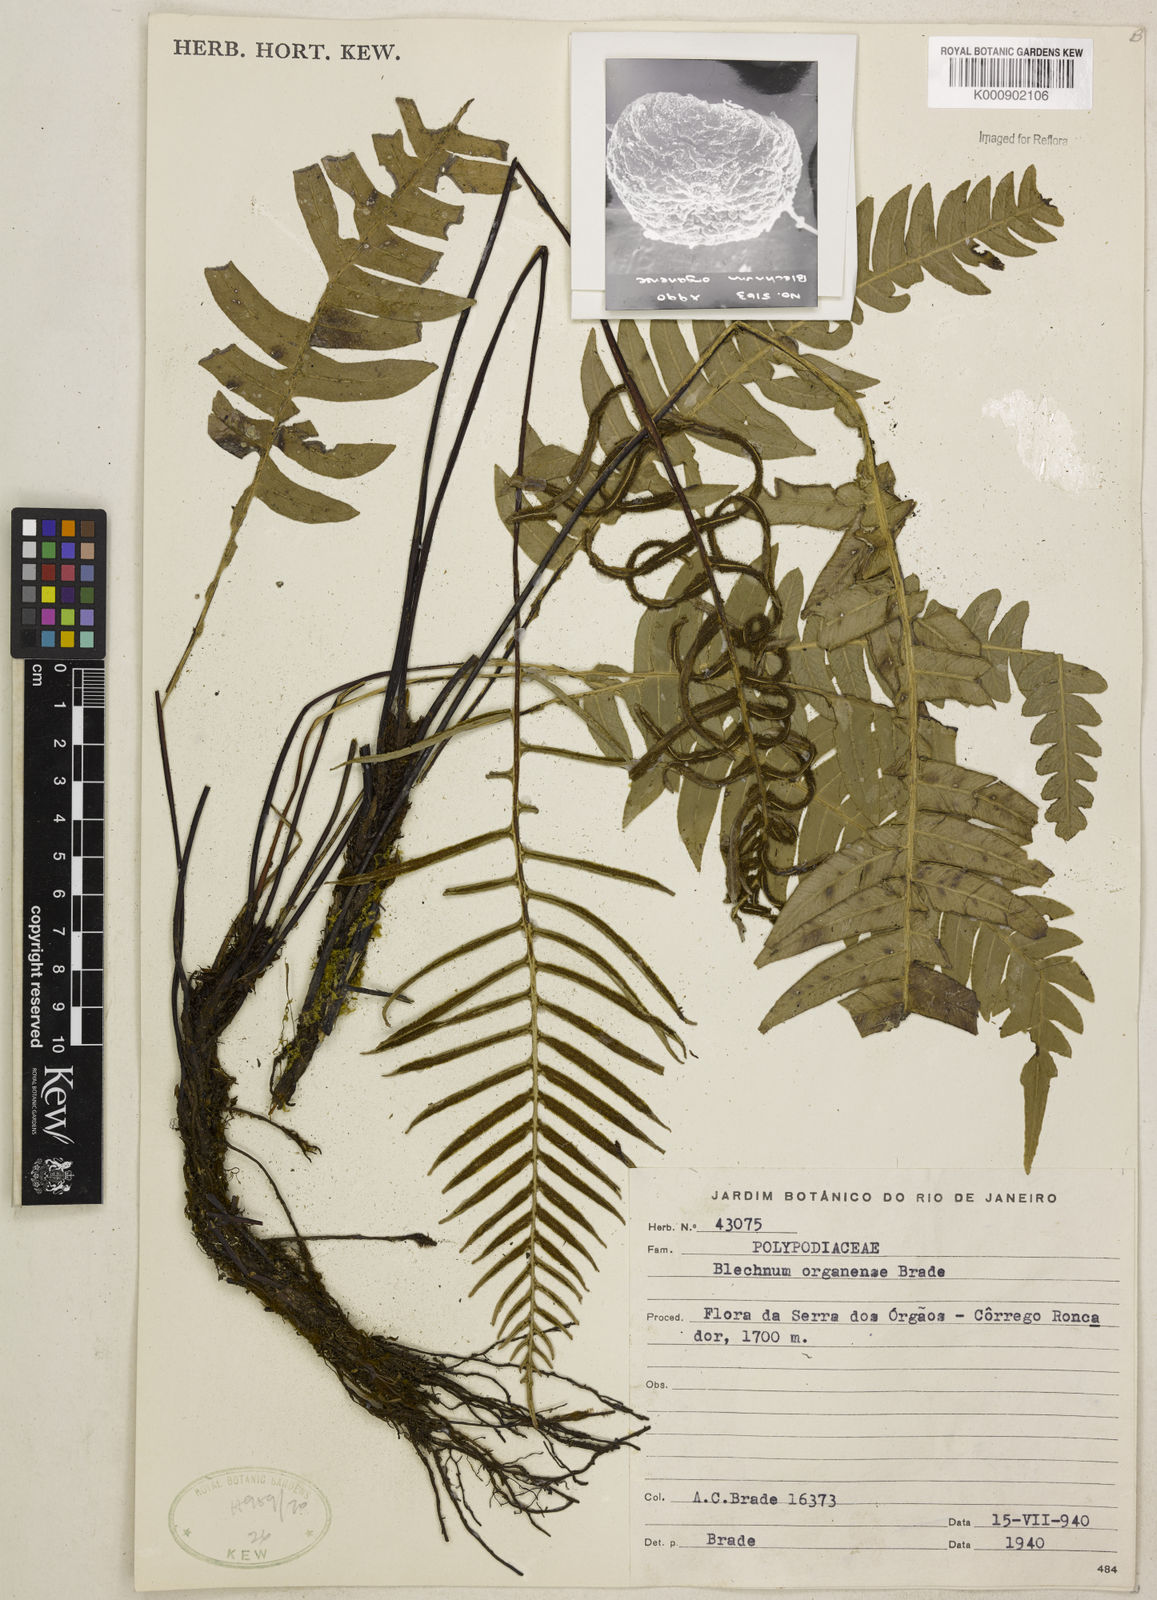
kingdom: Plantae
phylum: Tracheophyta
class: Polypodiopsida
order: Polypodiales
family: Blechnaceae
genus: Austroblechnum
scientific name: Austroblechnum organense
